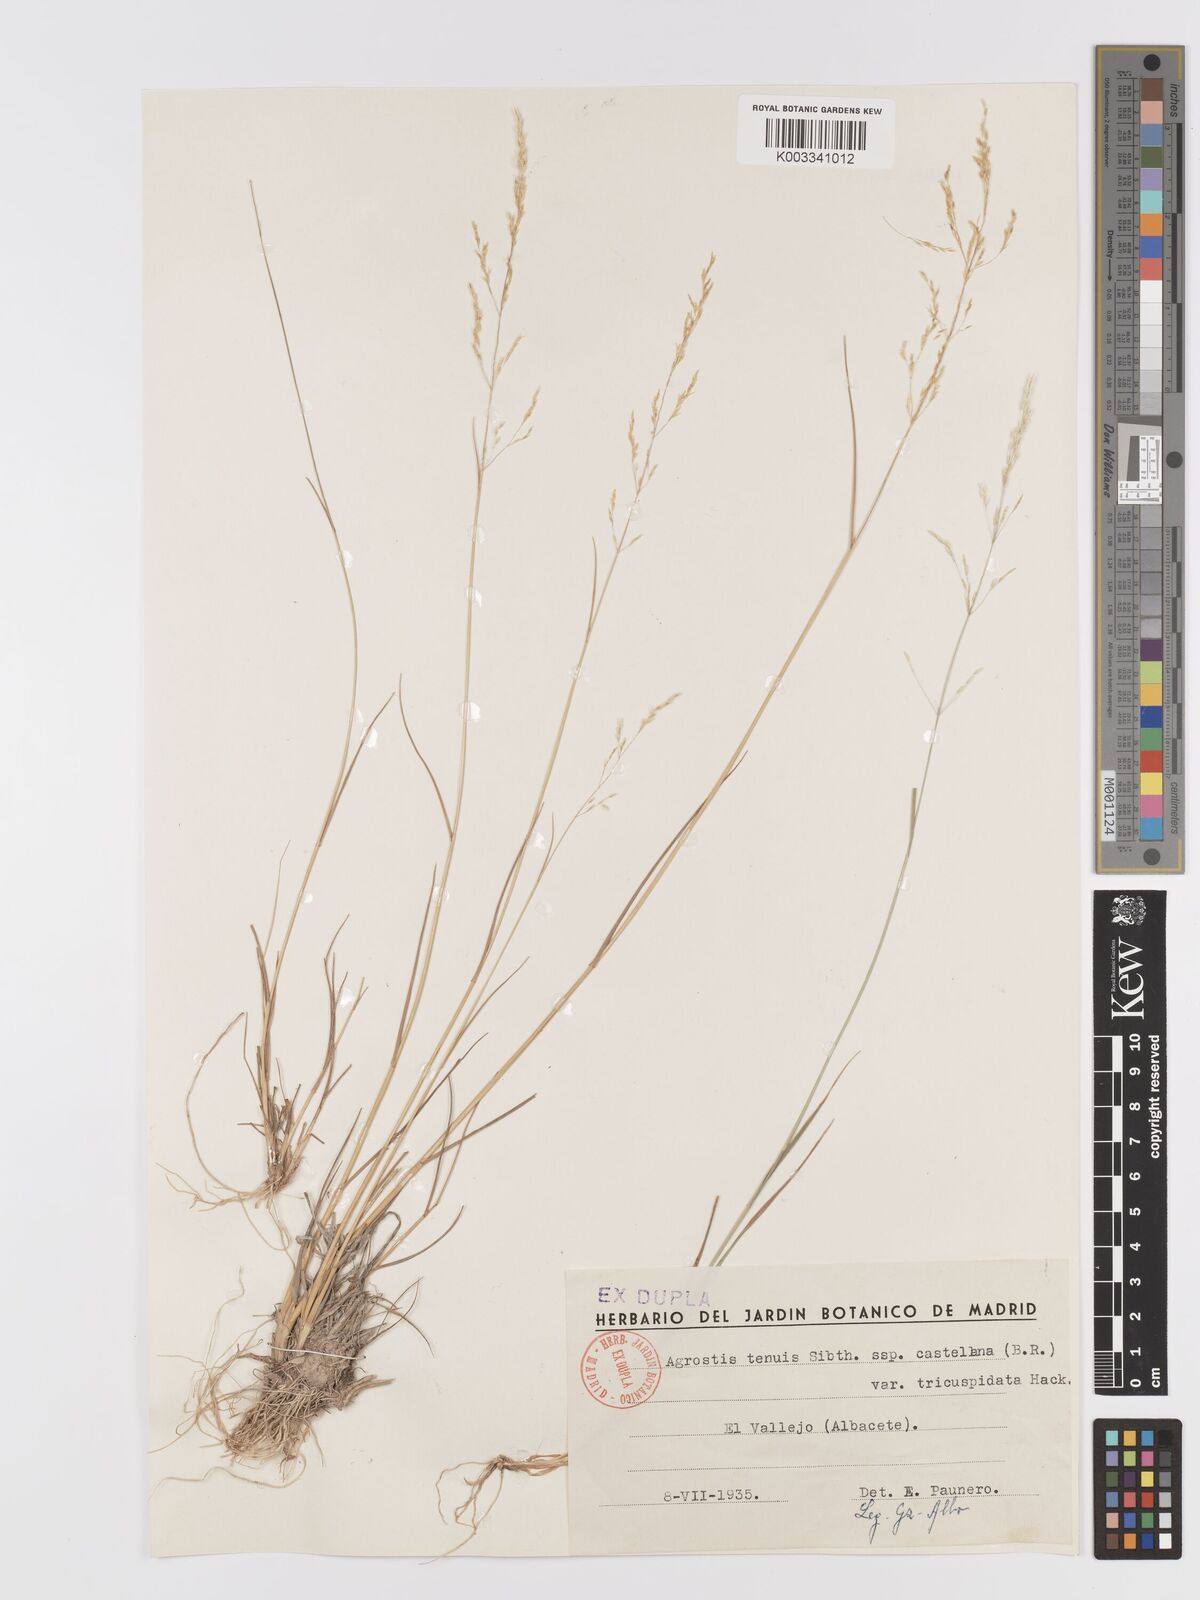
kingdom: Plantae
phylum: Tracheophyta
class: Liliopsida
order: Poales
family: Poaceae
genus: Agrostis
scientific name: Agrostis capillaris
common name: Colonial bentgrass
